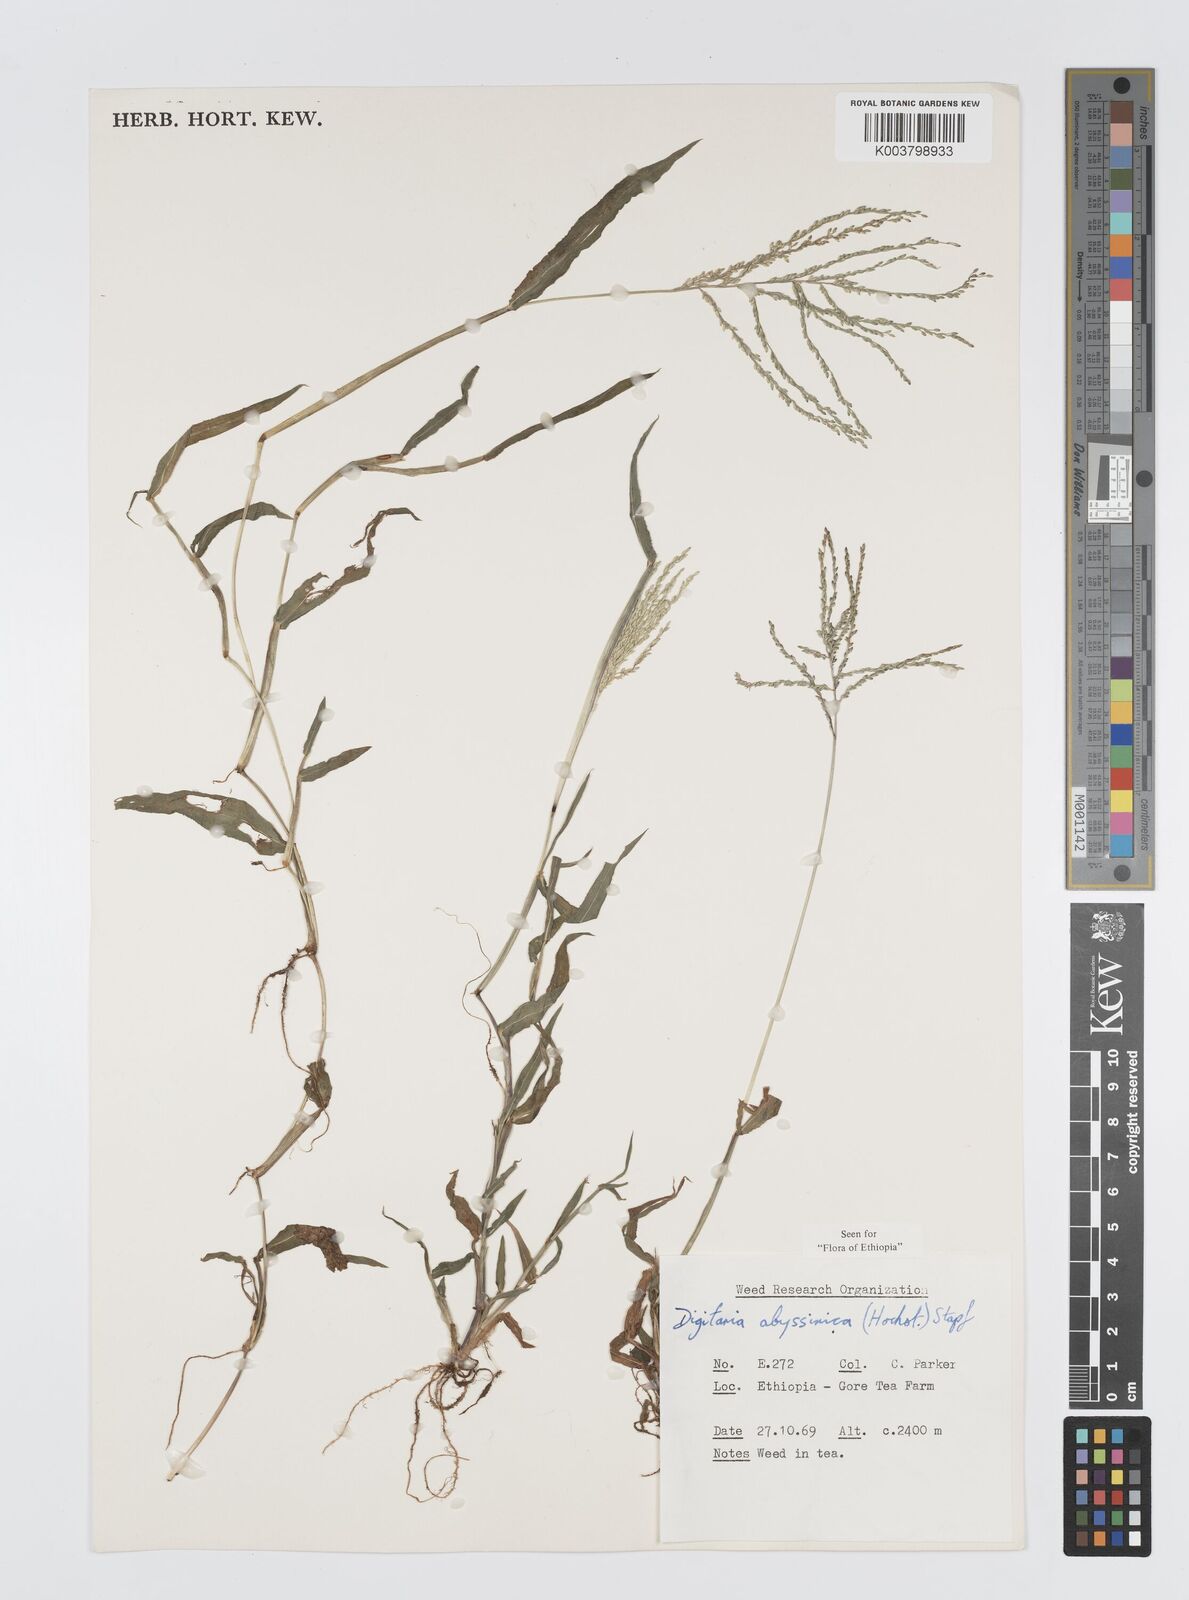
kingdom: Plantae
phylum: Tracheophyta
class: Liliopsida
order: Poales
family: Poaceae
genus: Digitaria
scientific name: Digitaria abyssinica
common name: African couchgrass
